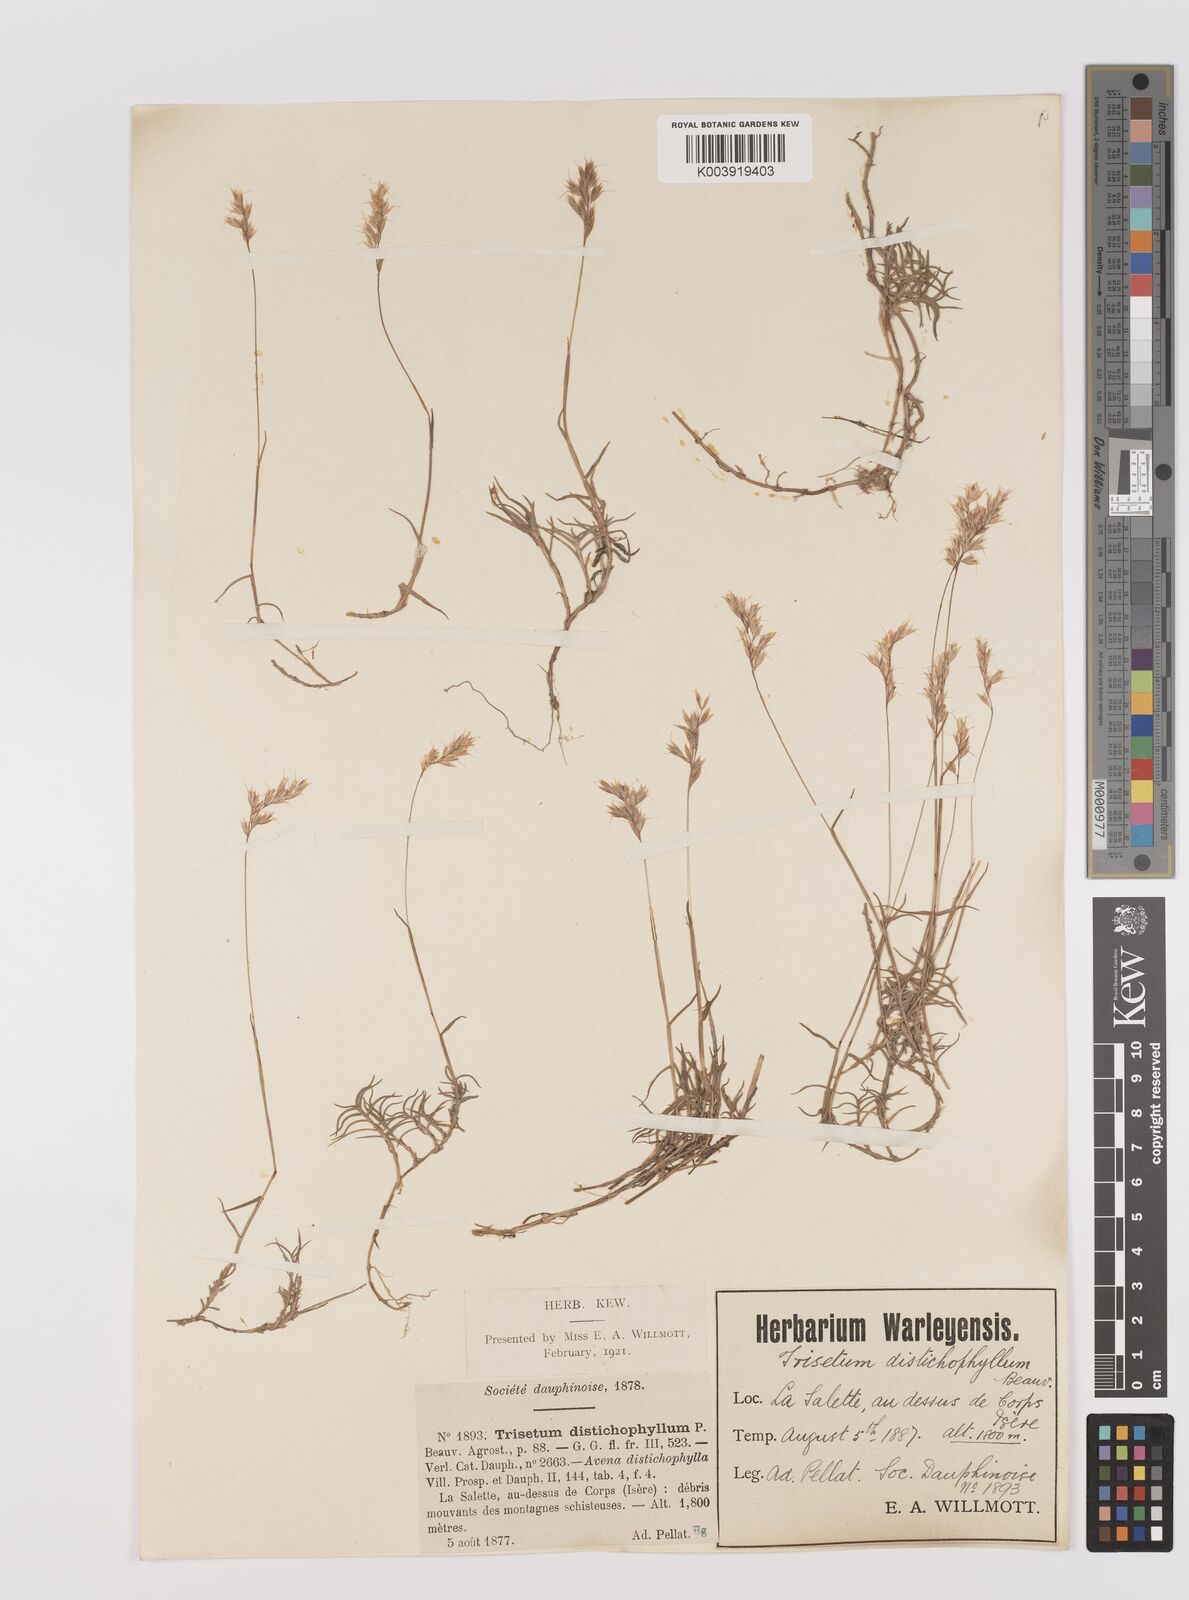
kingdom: Plantae
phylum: Tracheophyta
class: Liliopsida
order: Poales
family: Poaceae
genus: Acrospelion
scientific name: Acrospelion distichophyllum
